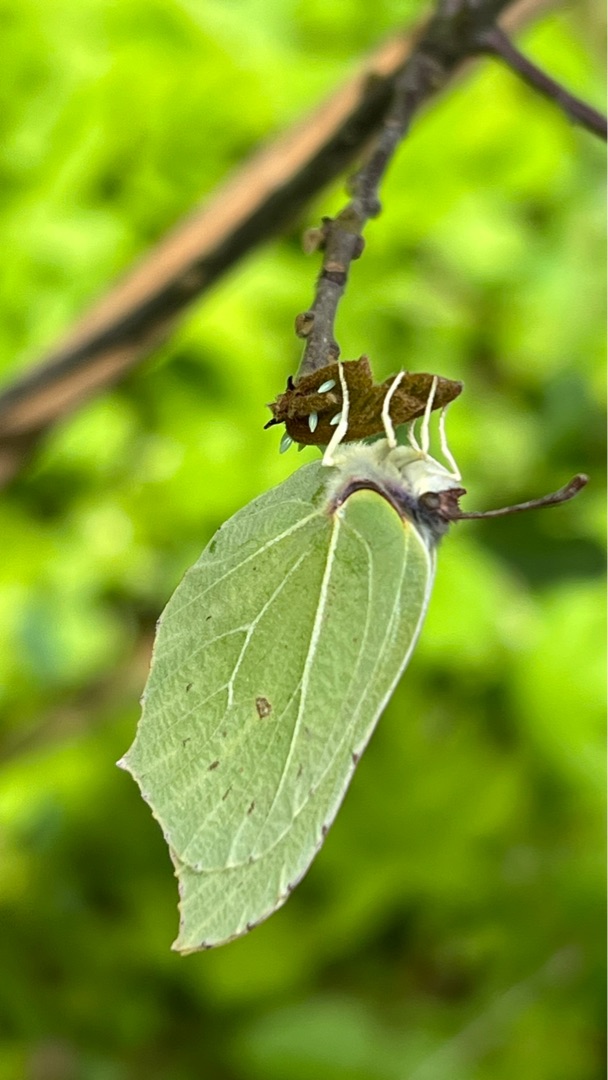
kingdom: Animalia
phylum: Arthropoda
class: Insecta
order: Lepidoptera
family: Pieridae
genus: Gonepteryx
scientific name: Gonepteryx rhamni
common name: Citronsommerfugl
